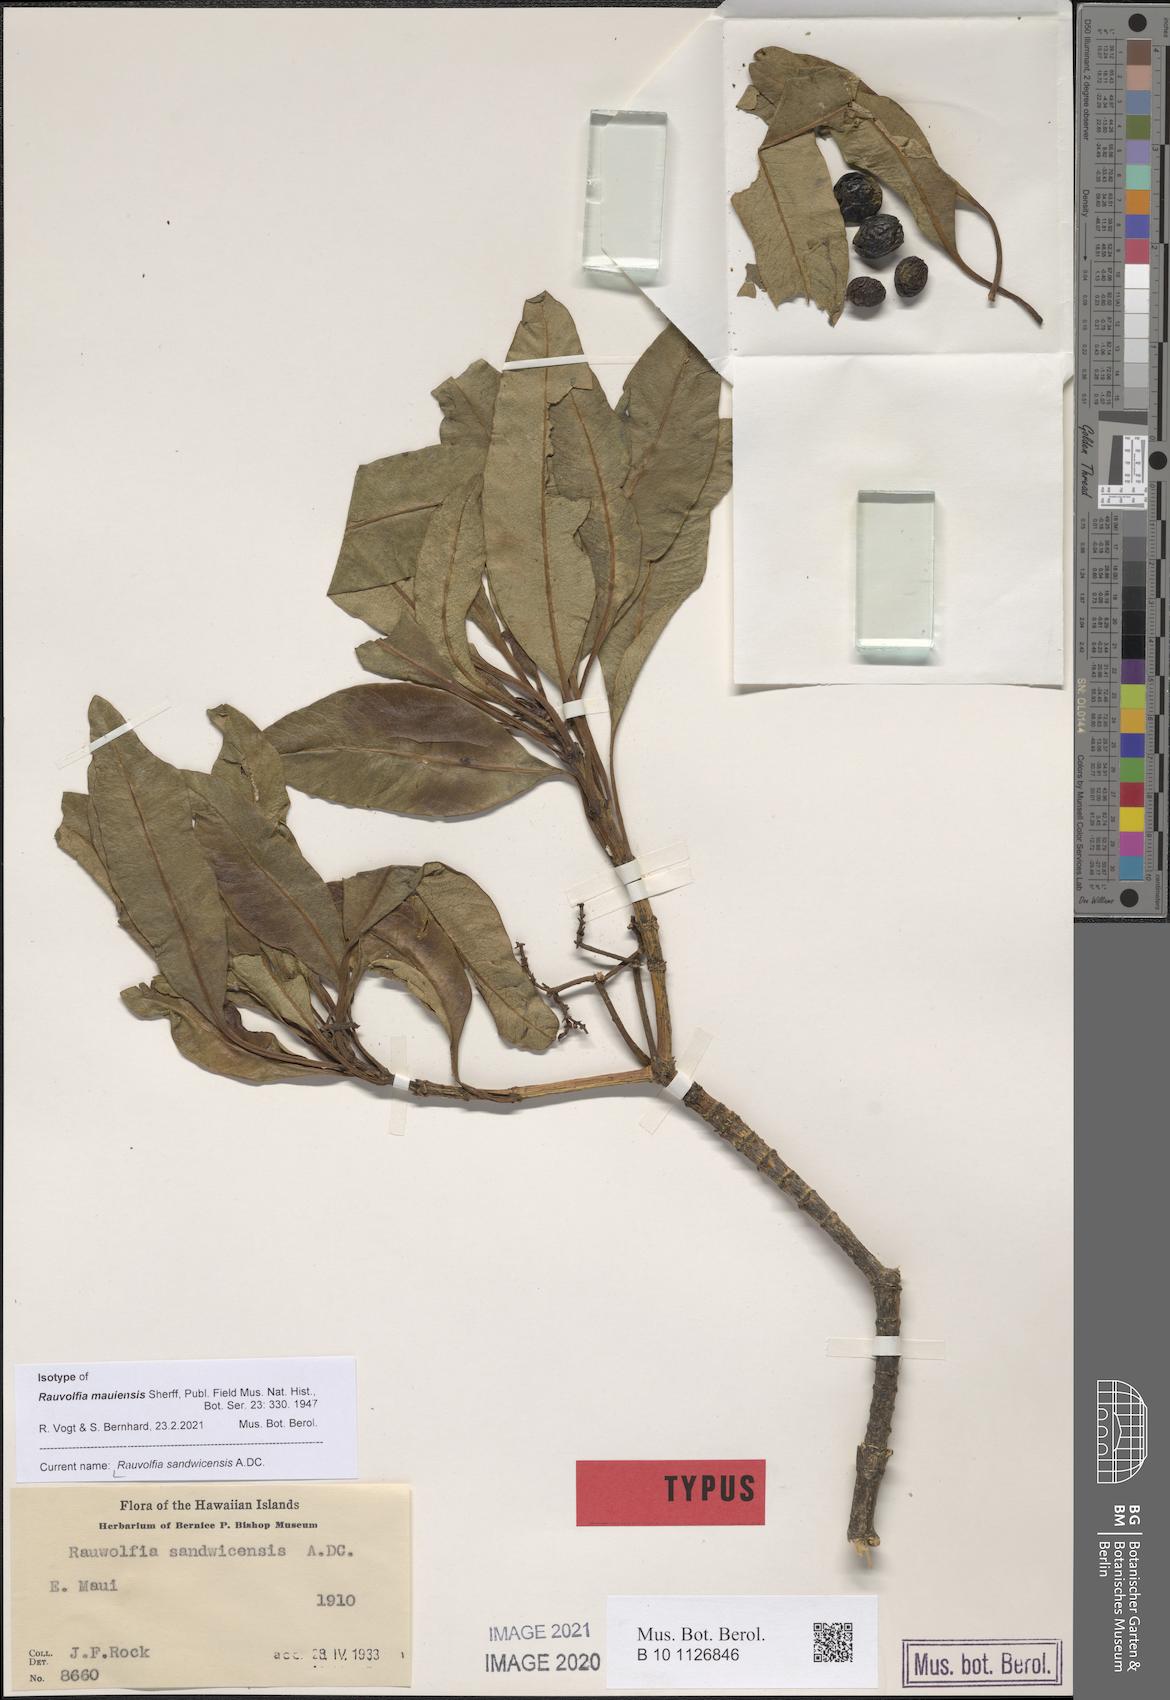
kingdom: Plantae
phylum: Tracheophyta
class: Magnoliopsida
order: Gentianales
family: Apocynaceae
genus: Rauvolfia
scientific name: Rauvolfia sandwicensis
